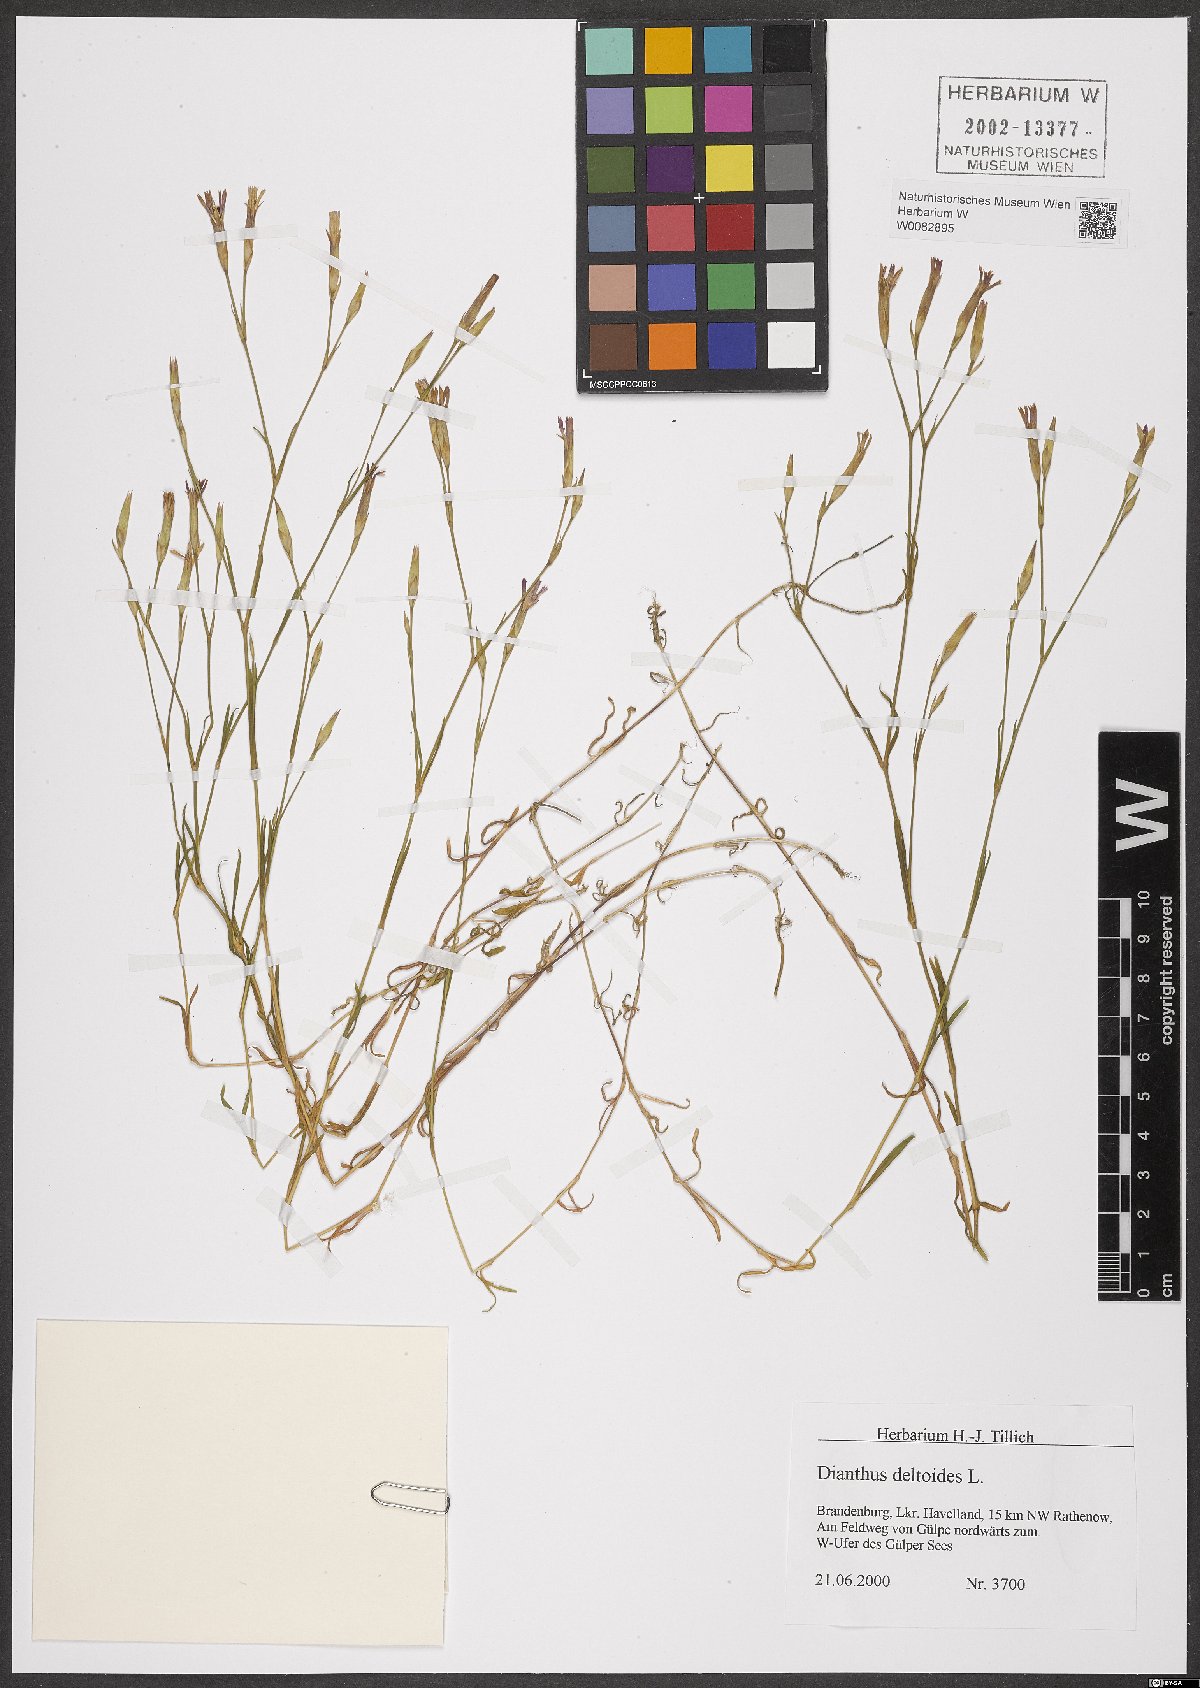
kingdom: Plantae
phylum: Tracheophyta
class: Magnoliopsida
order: Caryophyllales
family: Caryophyllaceae
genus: Dianthus
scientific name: Dianthus deltoides
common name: Maiden pink
